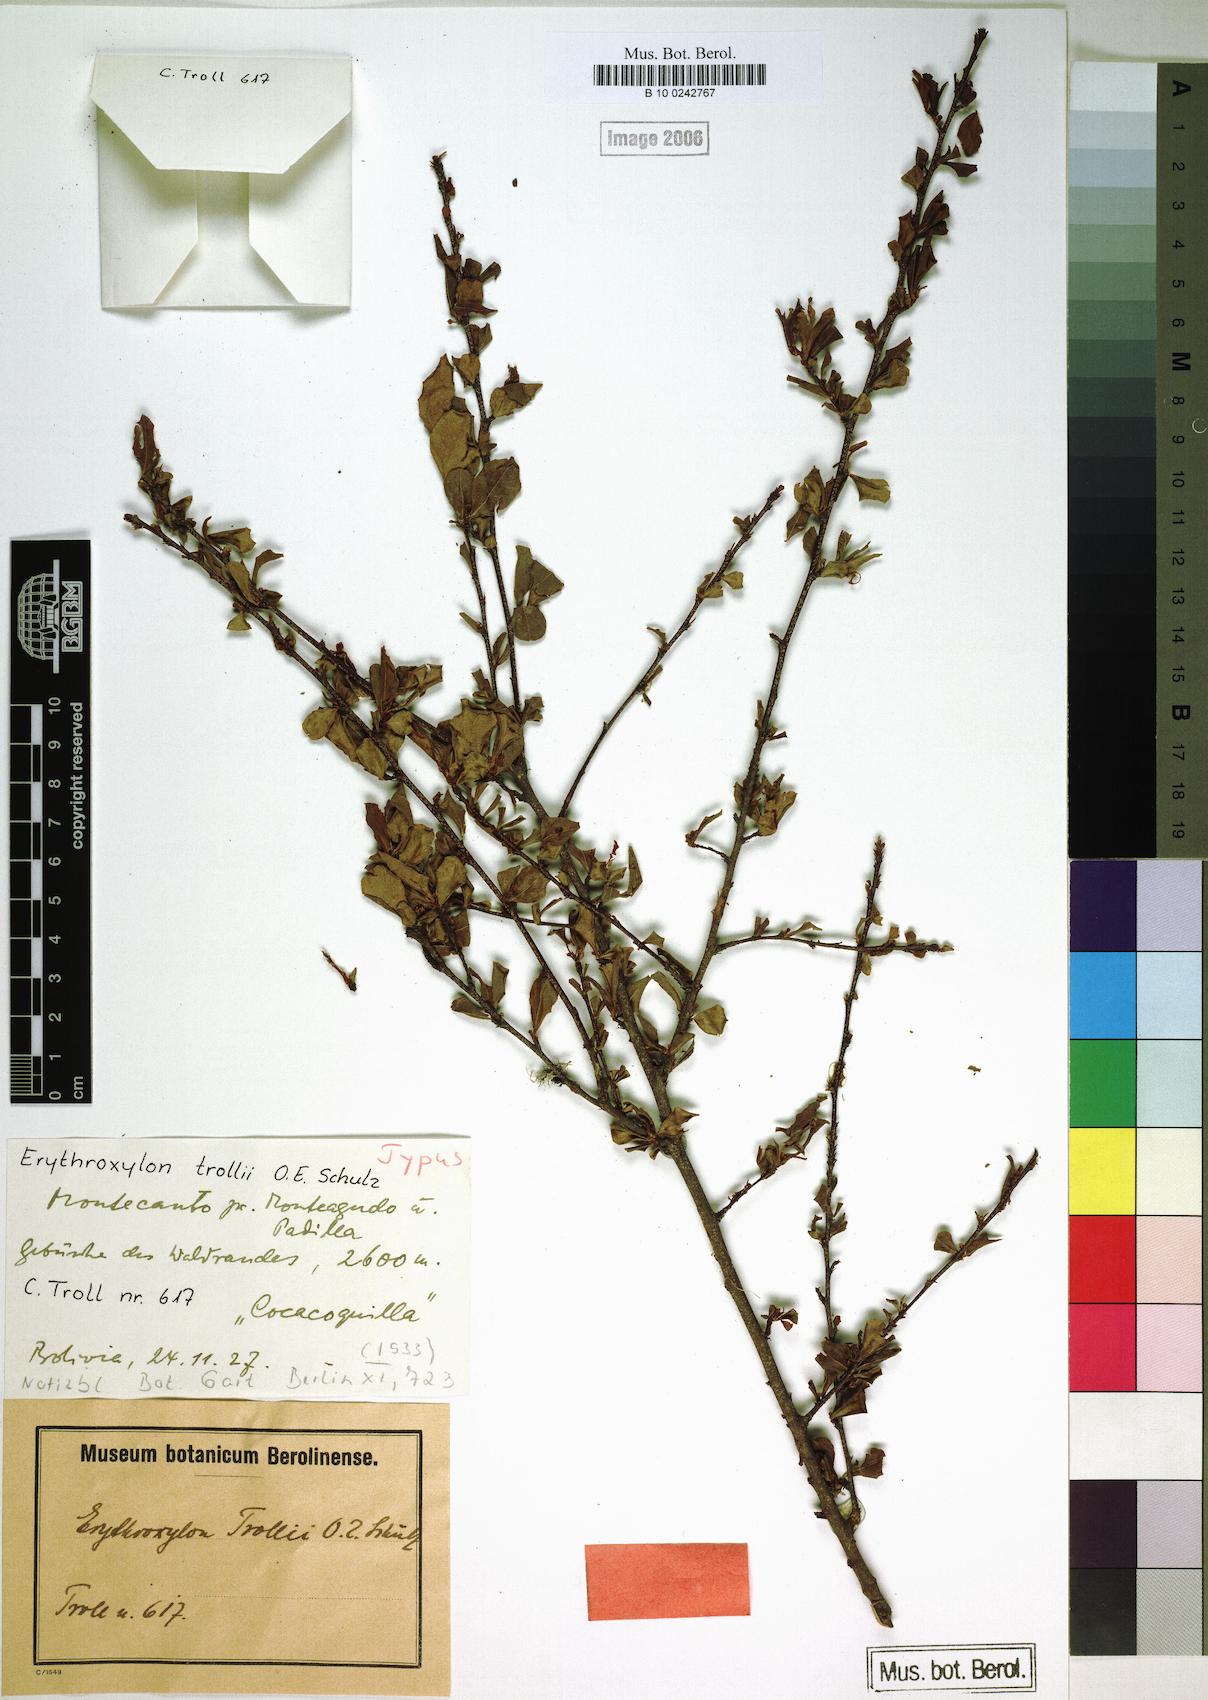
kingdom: Plantae
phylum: Tracheophyta
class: Magnoliopsida
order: Malpighiales
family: Erythroxylaceae
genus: Erythroxylum
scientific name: Erythroxylum cuneifolium
